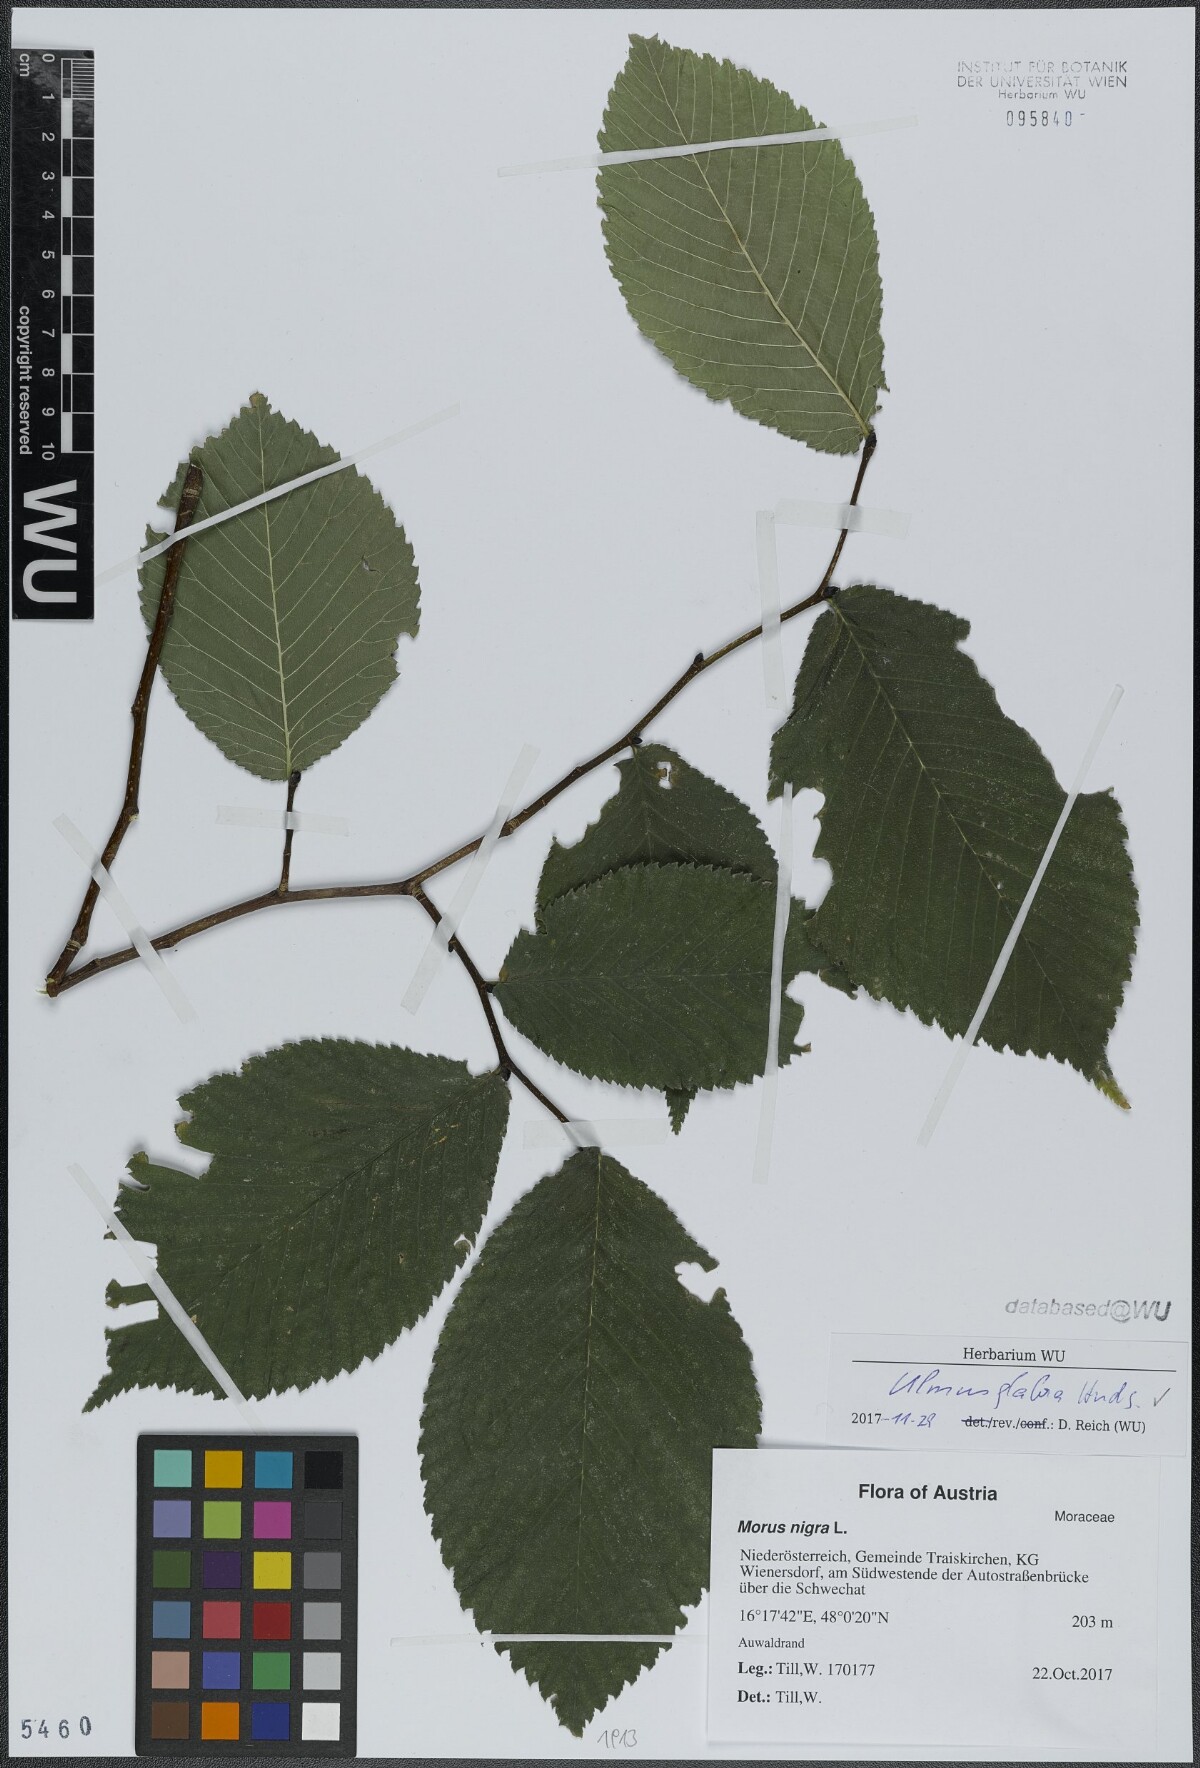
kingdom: Plantae
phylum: Tracheophyta
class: Magnoliopsida
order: Rosales
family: Ulmaceae
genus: Ulmus
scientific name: Ulmus glabra
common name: Wych elm
